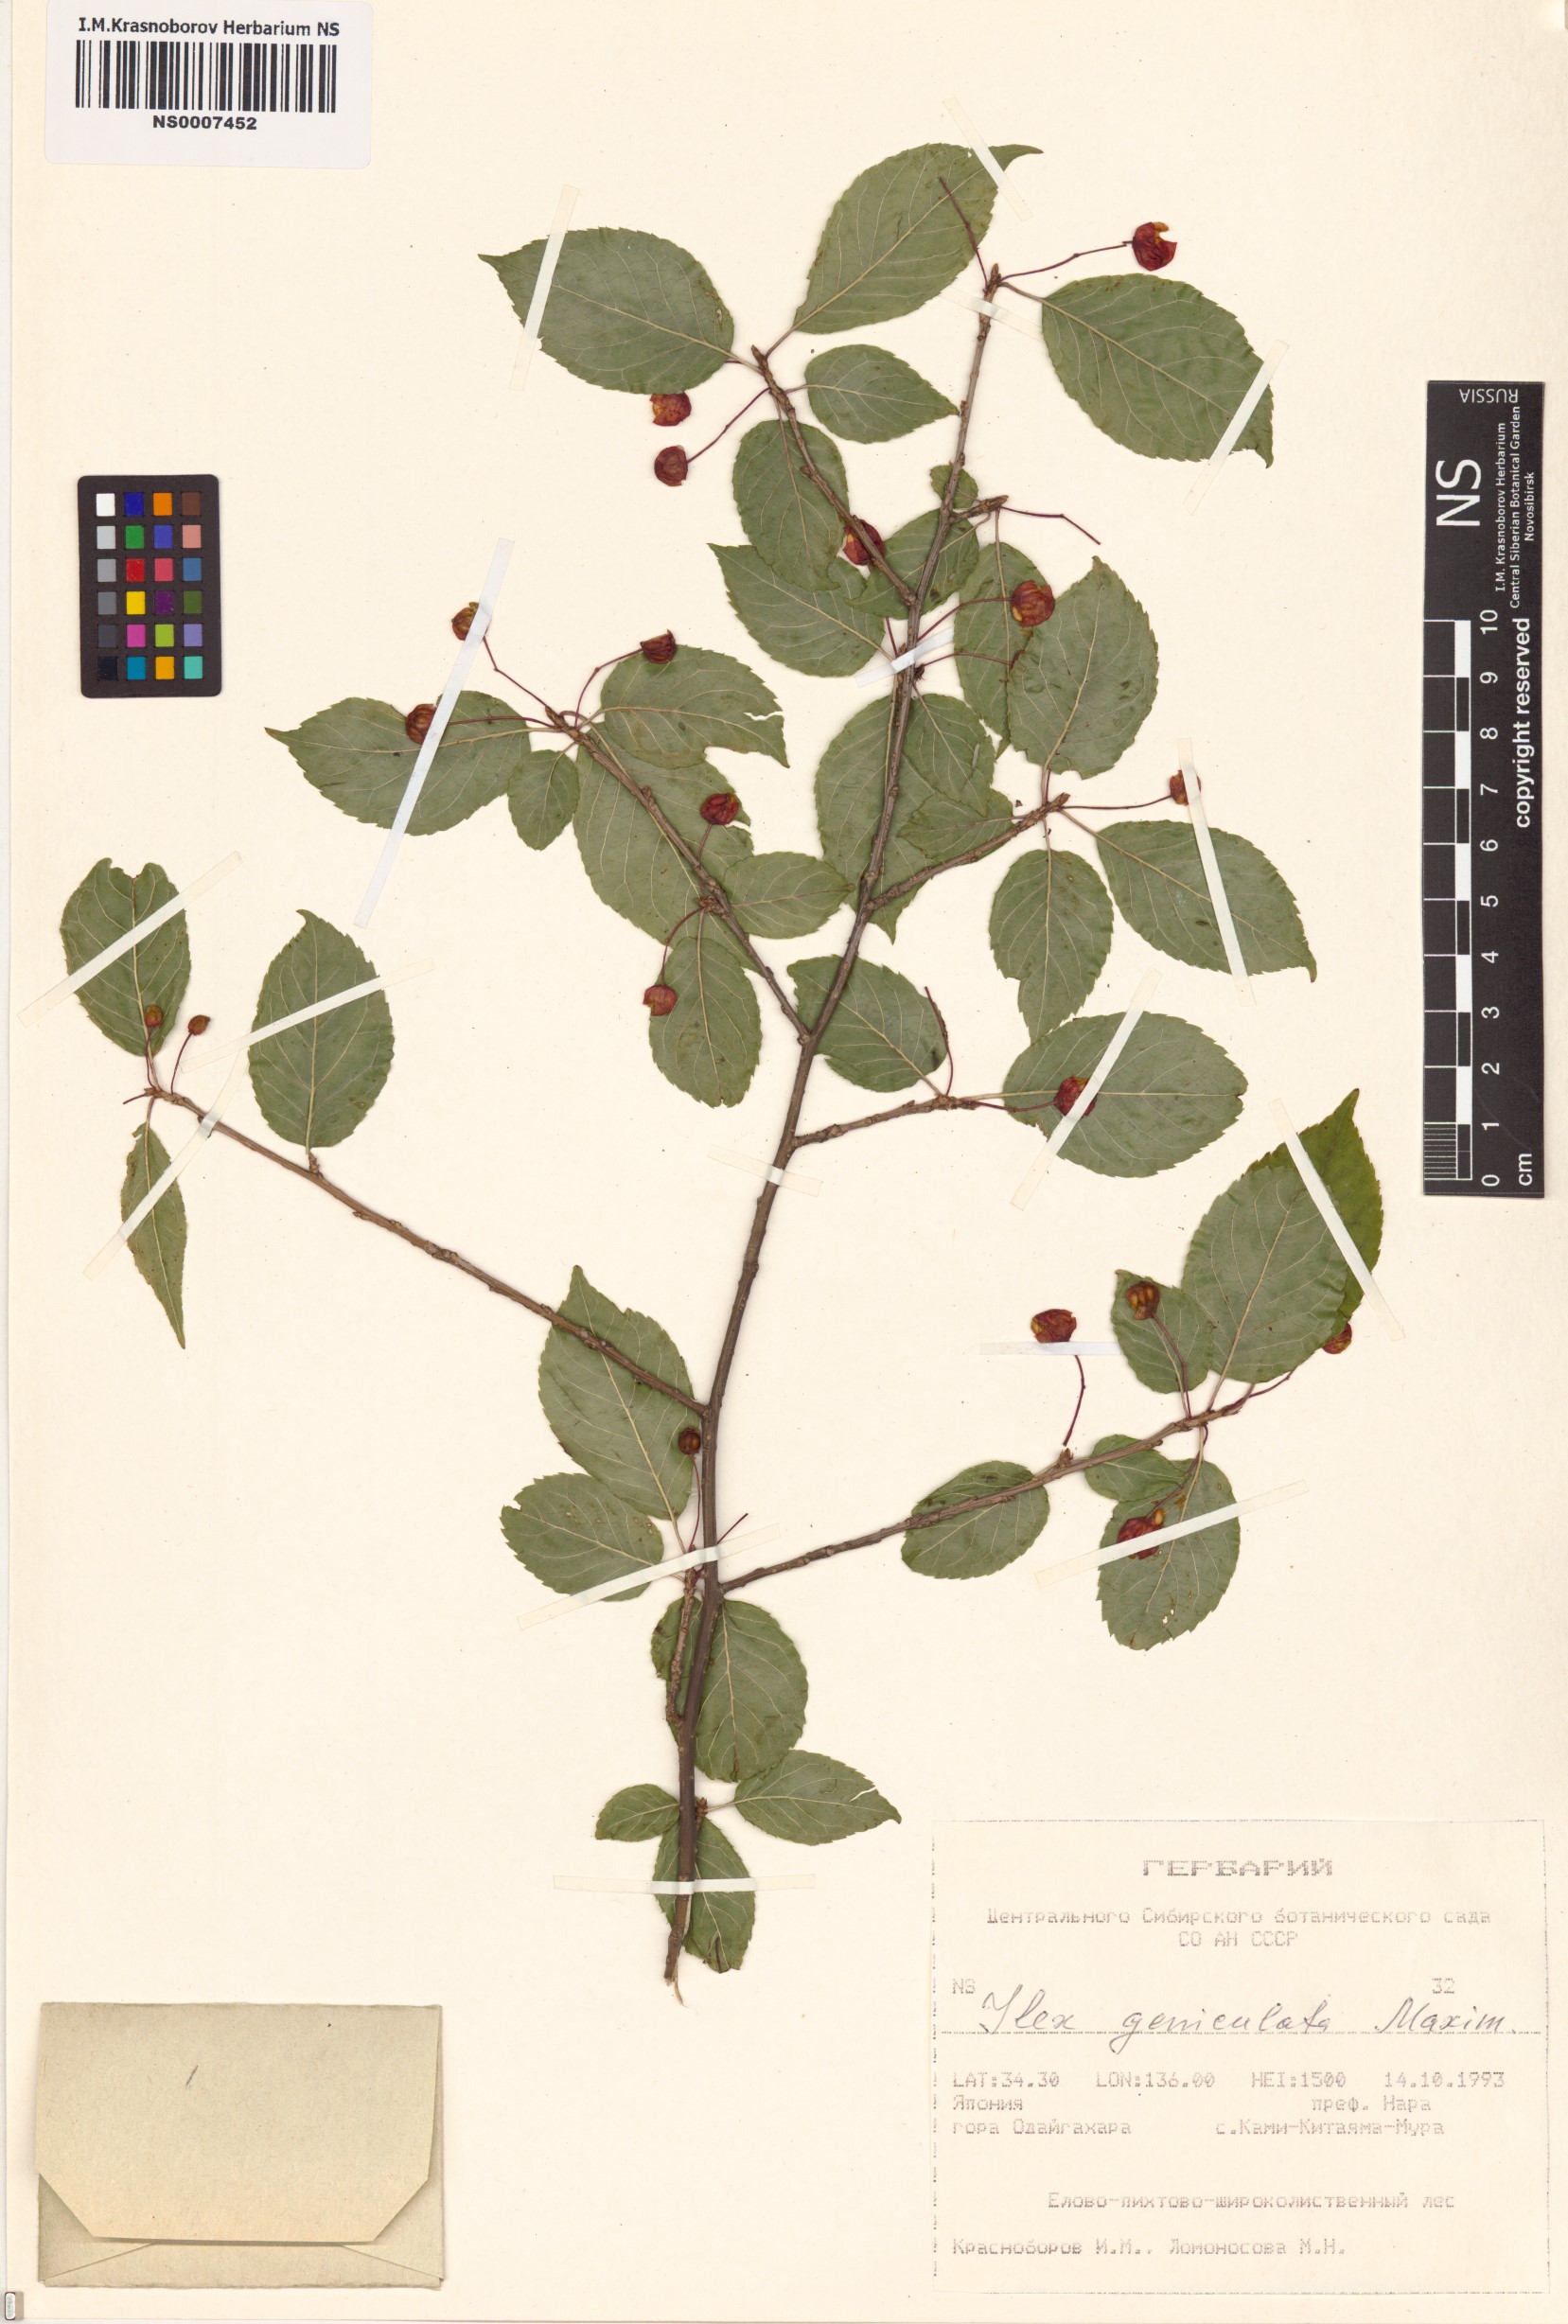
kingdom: Plantae
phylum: Tracheophyta
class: Magnoliopsida
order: Aquifoliales
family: Aquifoliaceae
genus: Ilex
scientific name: Ilex geniculata
